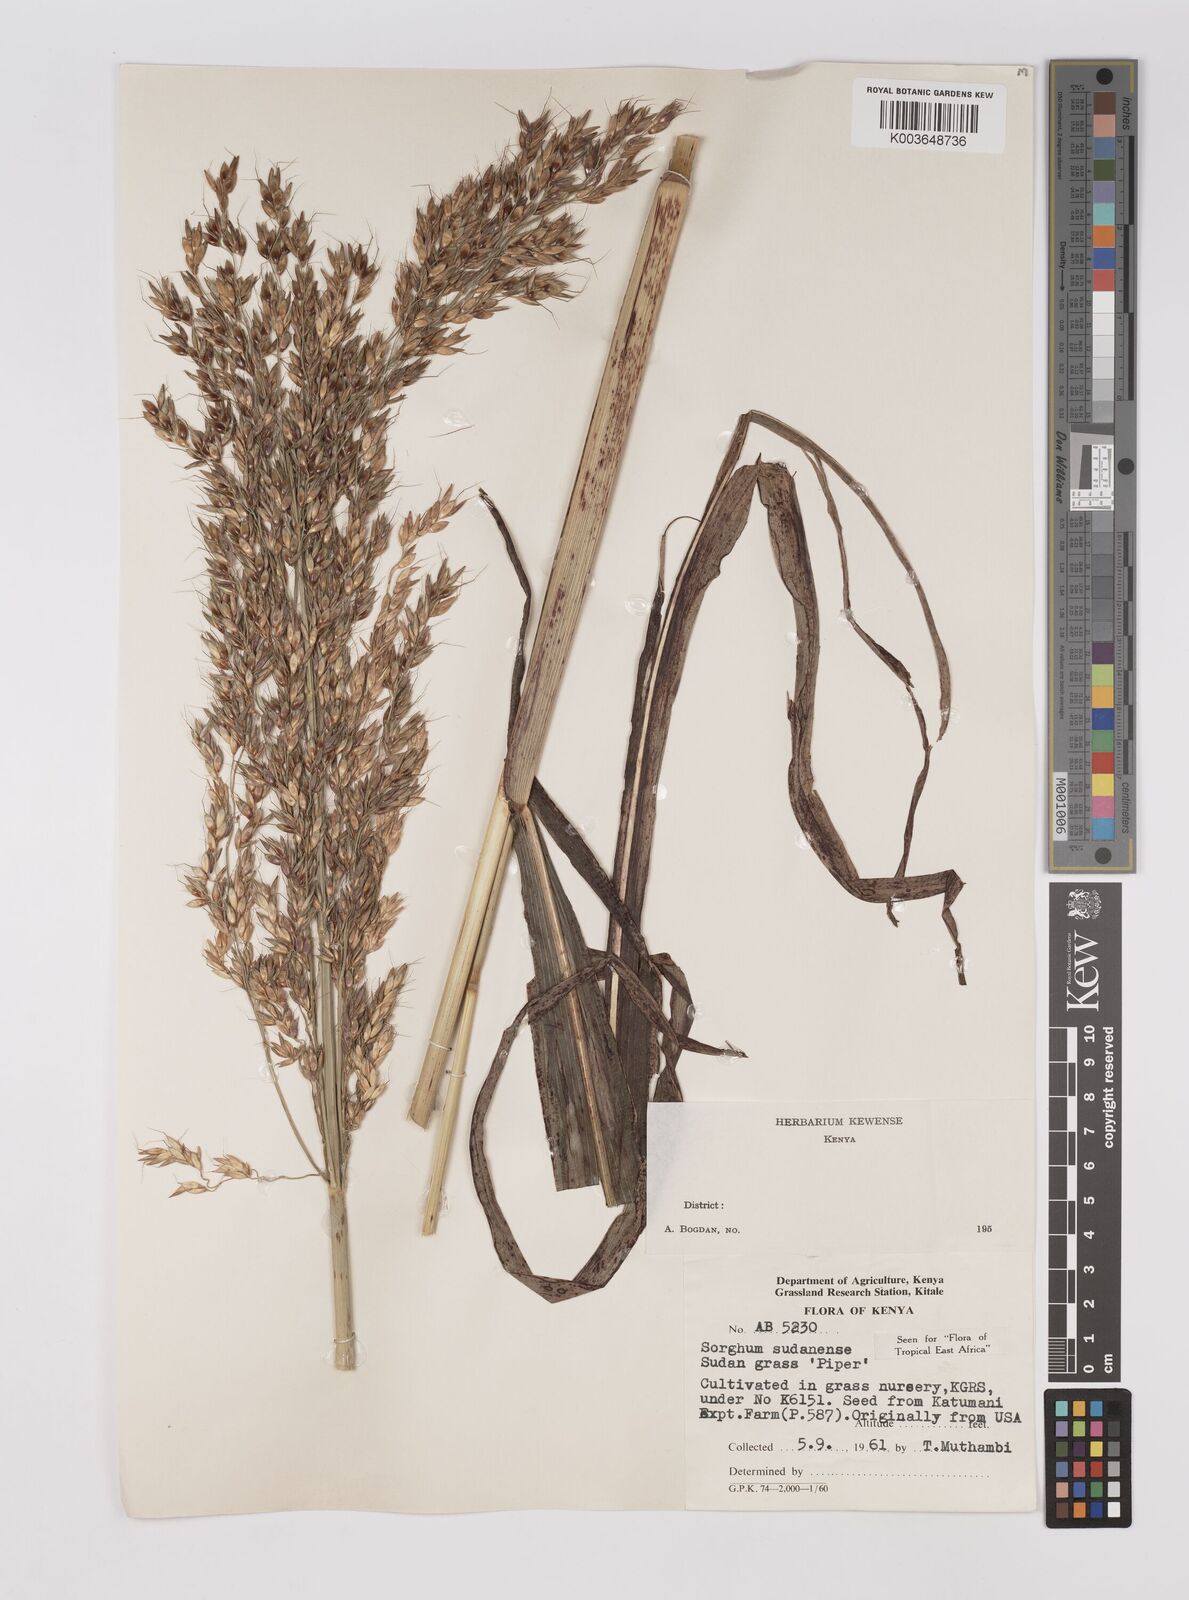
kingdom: Plantae
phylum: Tracheophyta
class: Liliopsida
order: Poales
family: Poaceae
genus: Sorghum
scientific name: Sorghum drummondii
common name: Sudangrass
